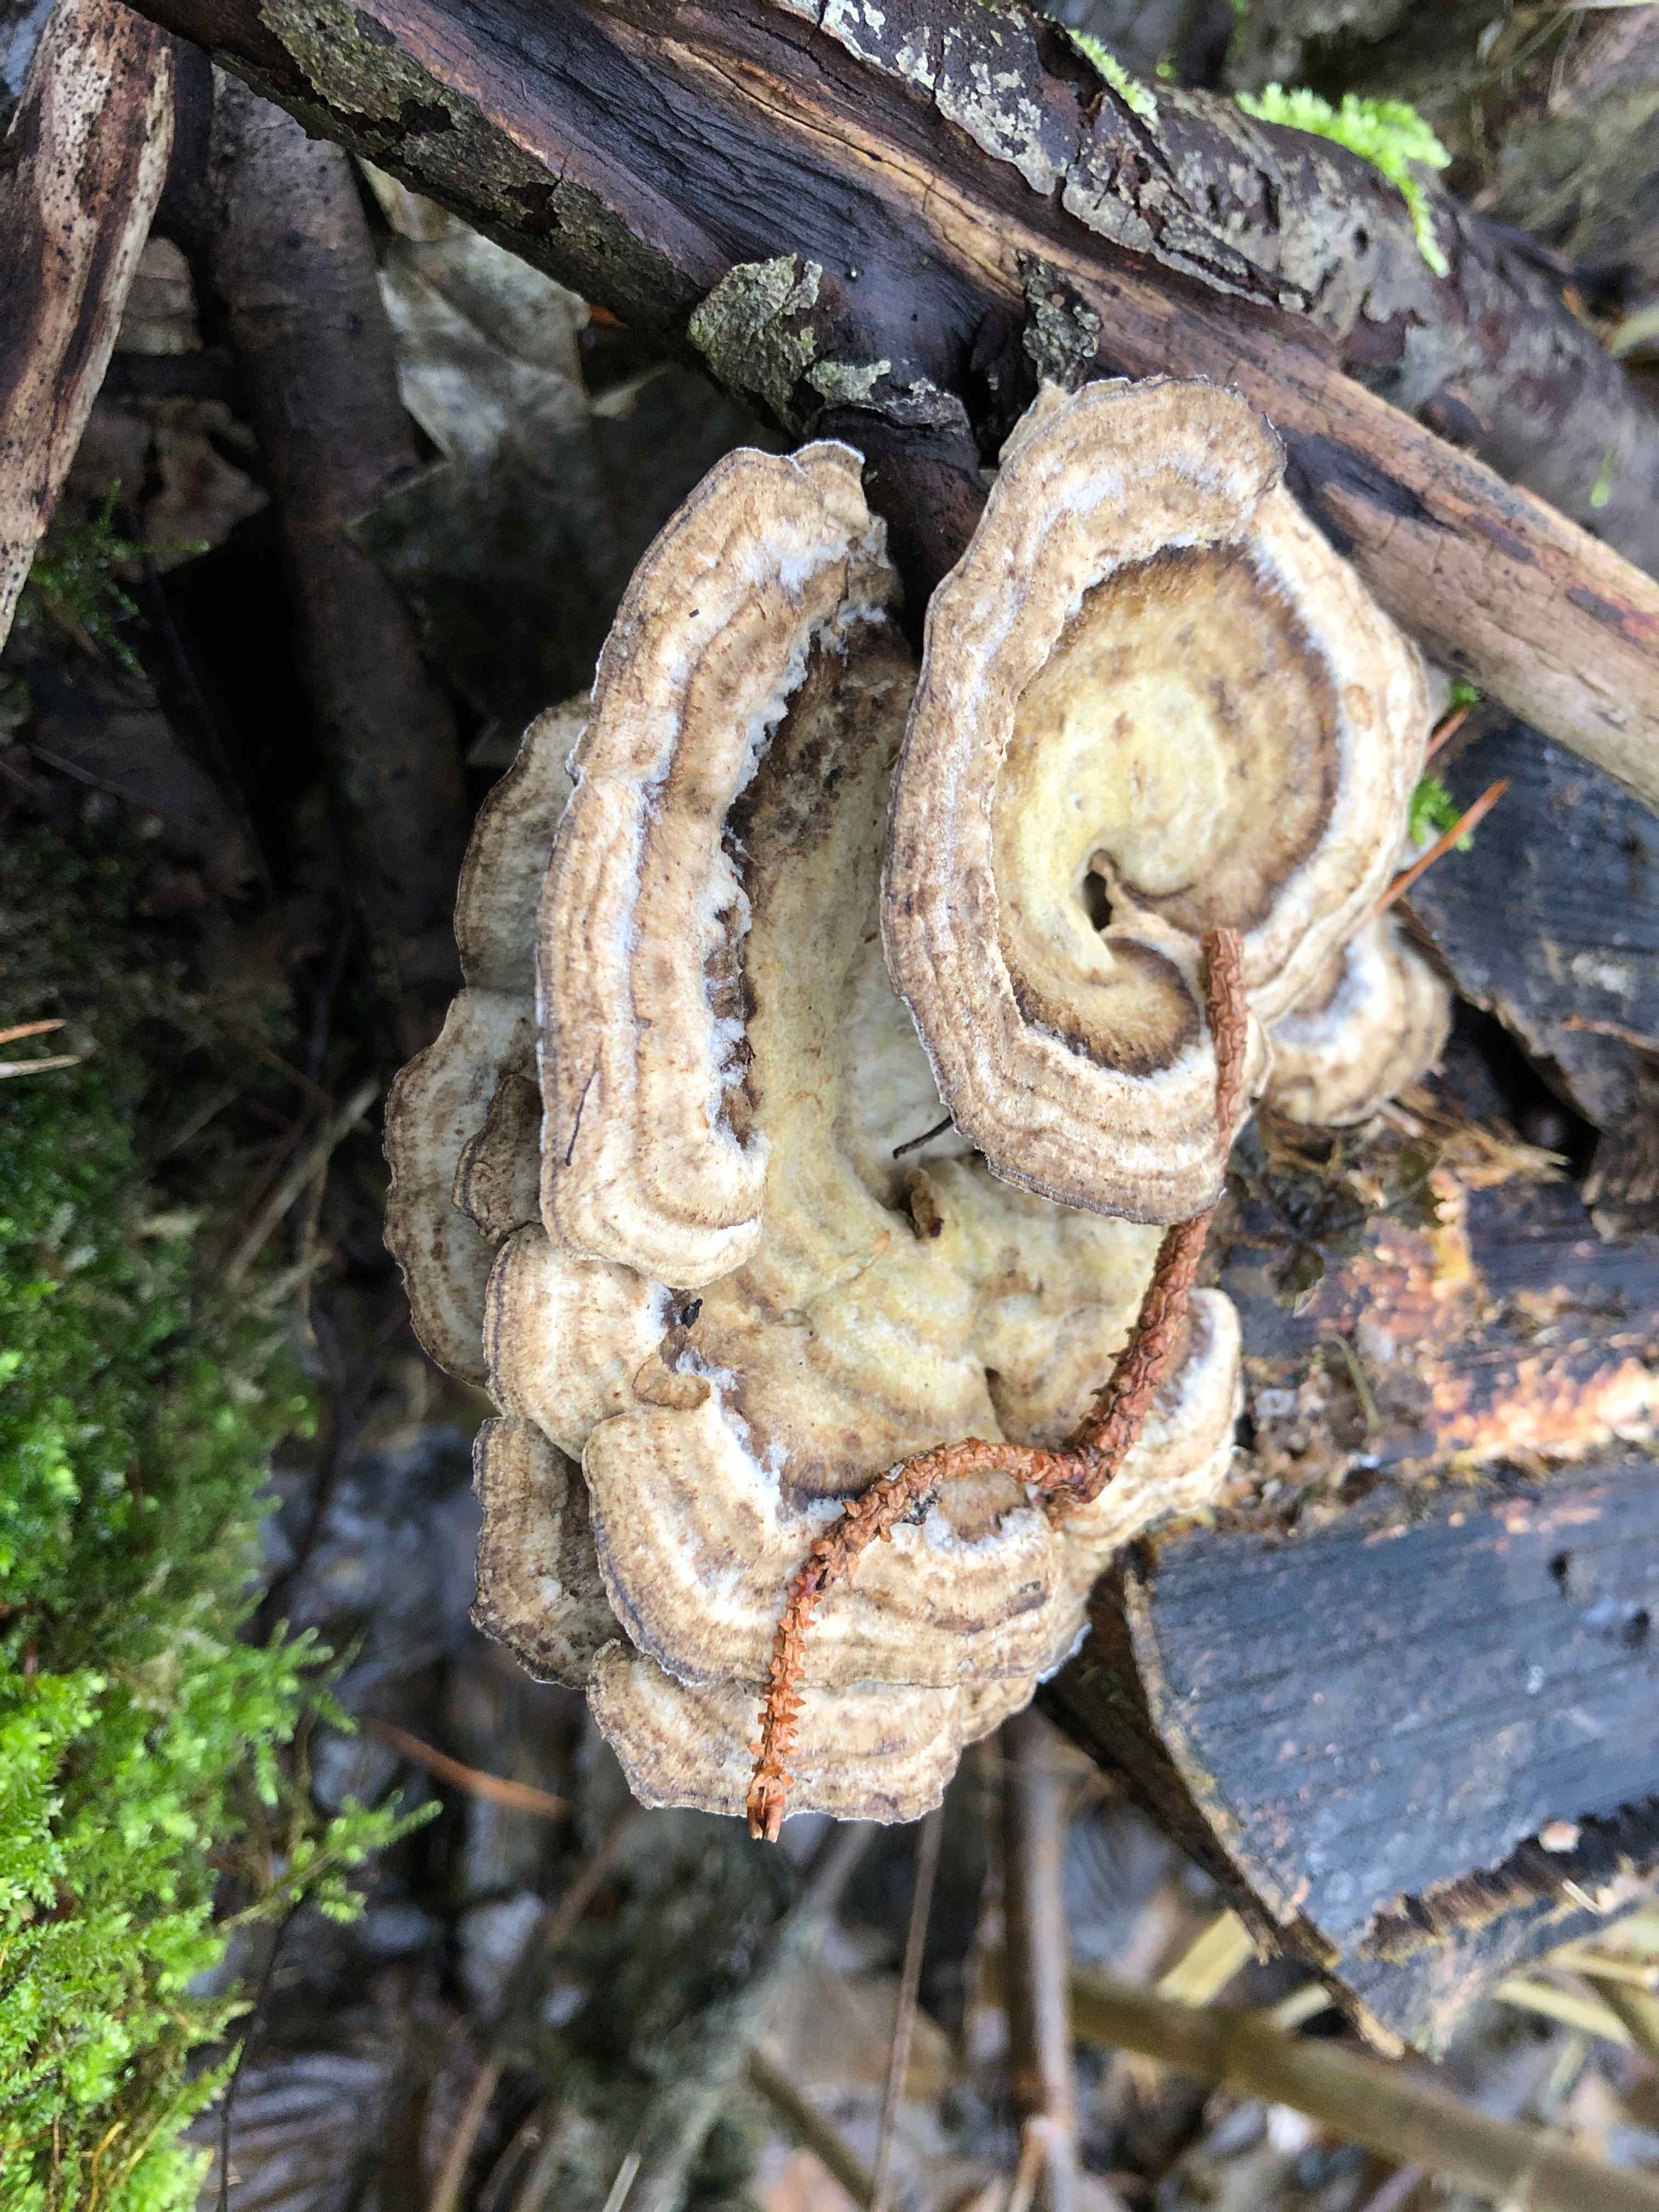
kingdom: Fungi
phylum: Basidiomycota
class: Agaricomycetes
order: Polyporales
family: Phanerochaetaceae
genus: Bjerkandera
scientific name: Bjerkandera adusta
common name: sveden sodporesvamp
